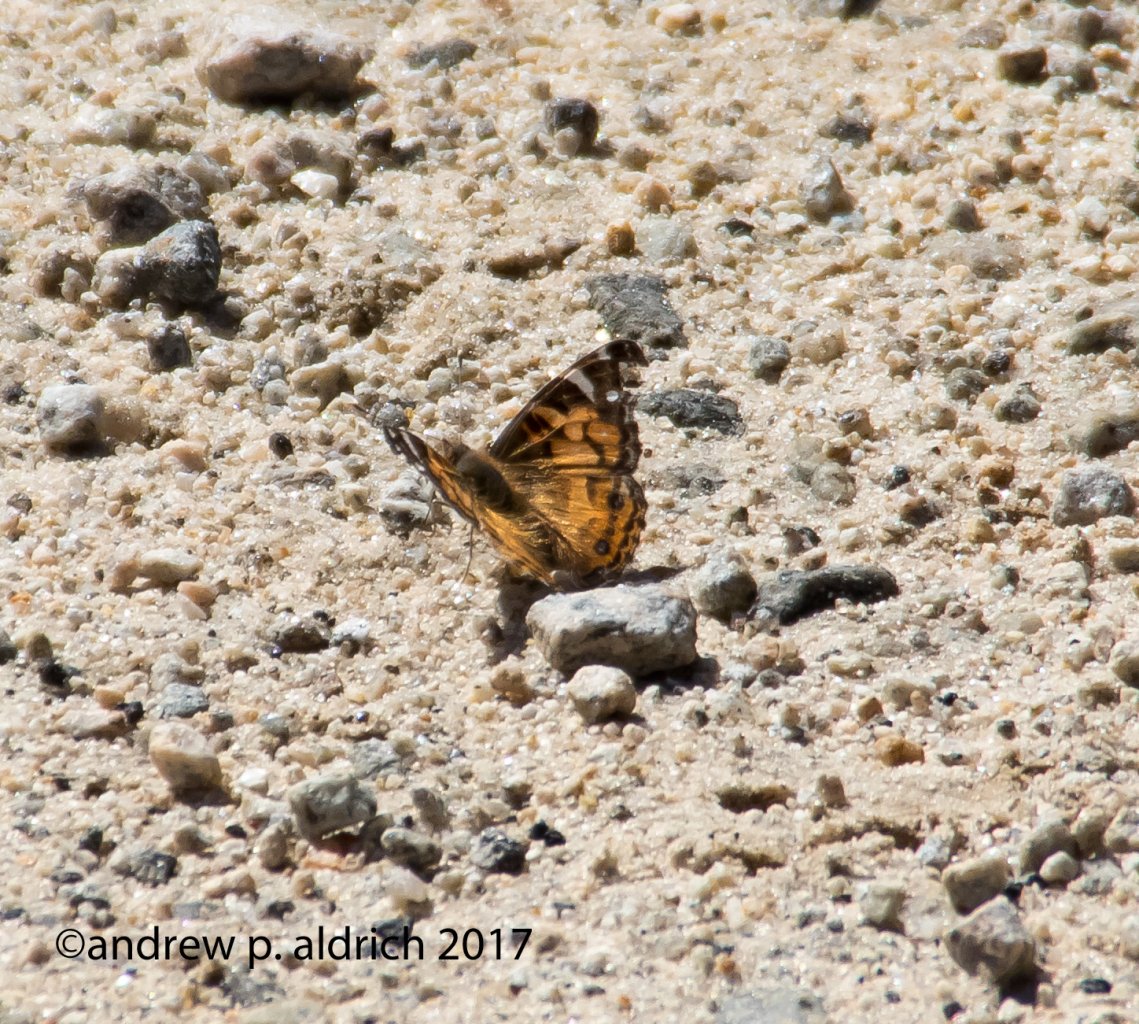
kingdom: Animalia
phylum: Arthropoda
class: Insecta
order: Lepidoptera
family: Nymphalidae
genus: Vanessa
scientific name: Vanessa virginiensis
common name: American Lady
